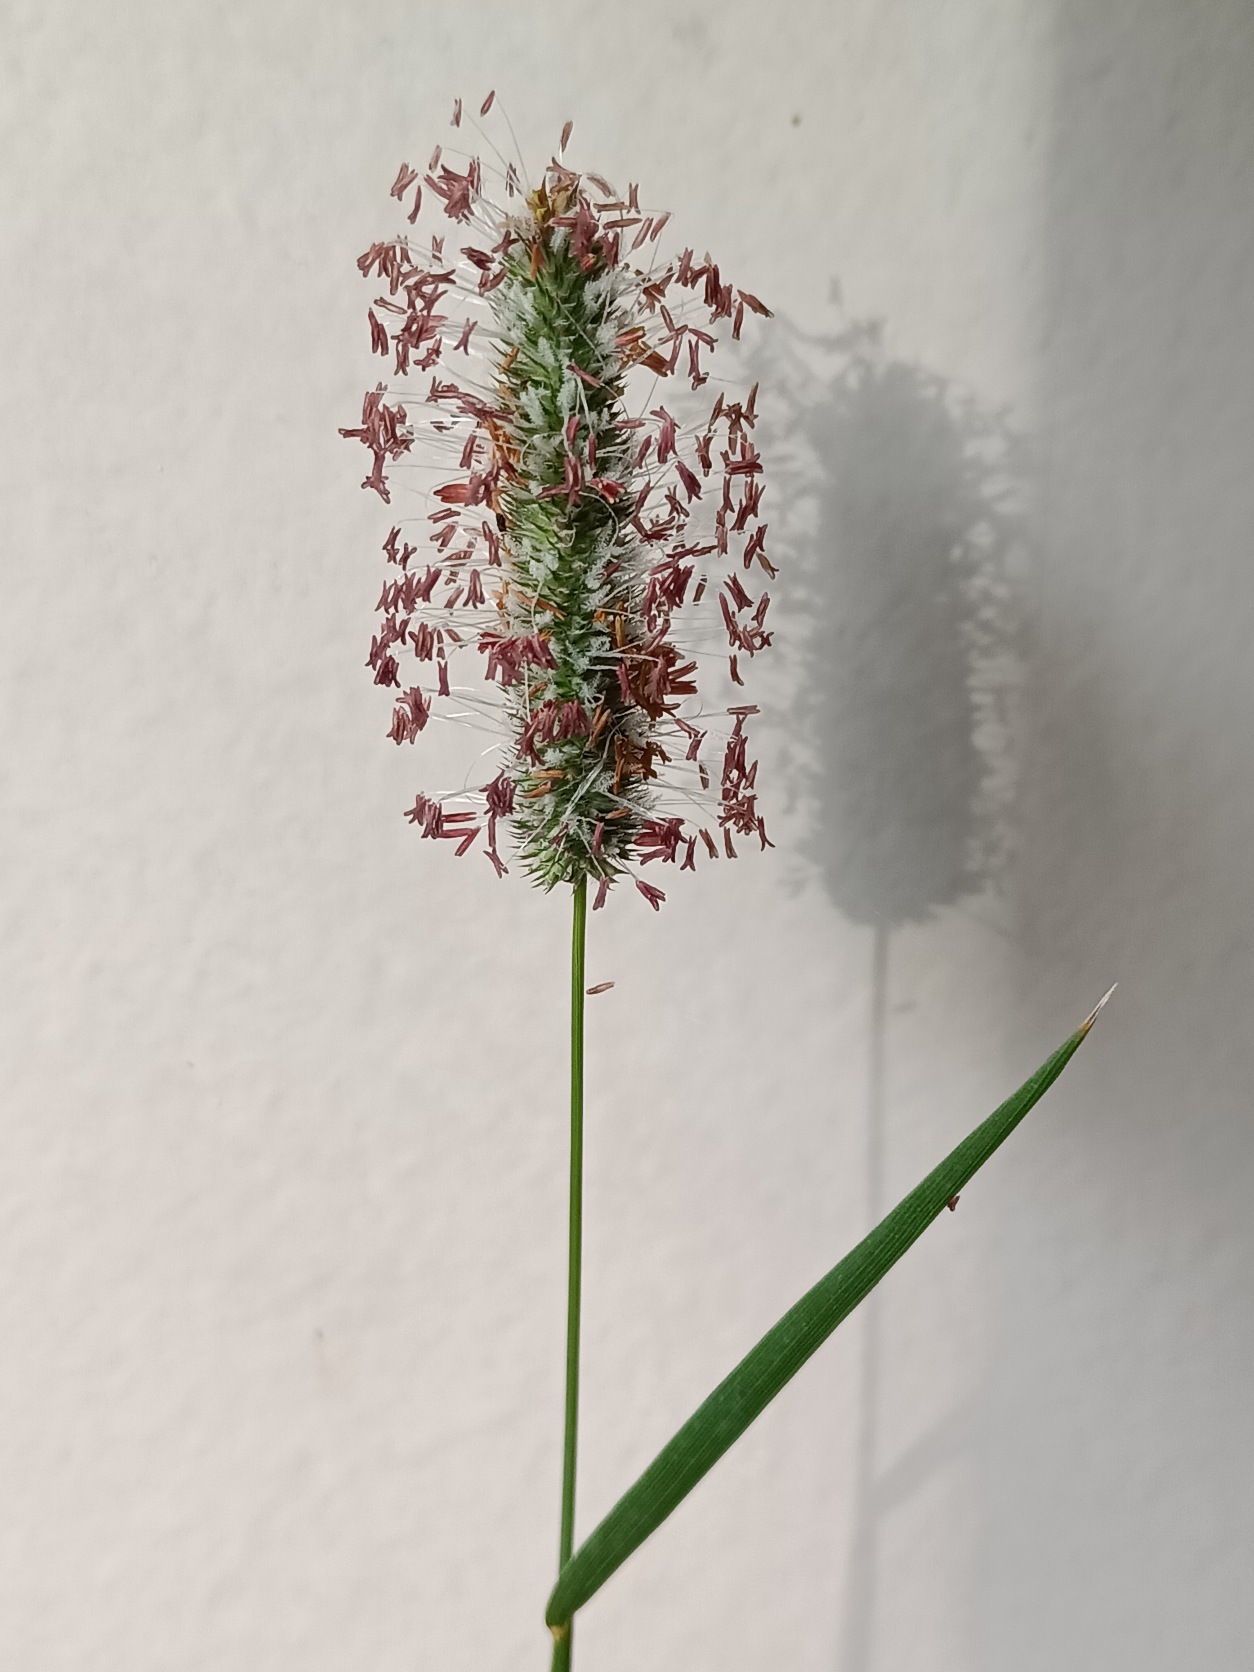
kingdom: Plantae
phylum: Tracheophyta
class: Liliopsida
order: Poales
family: Poaceae
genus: Phleum
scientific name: Phleum pratense
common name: Eng-rottehale
